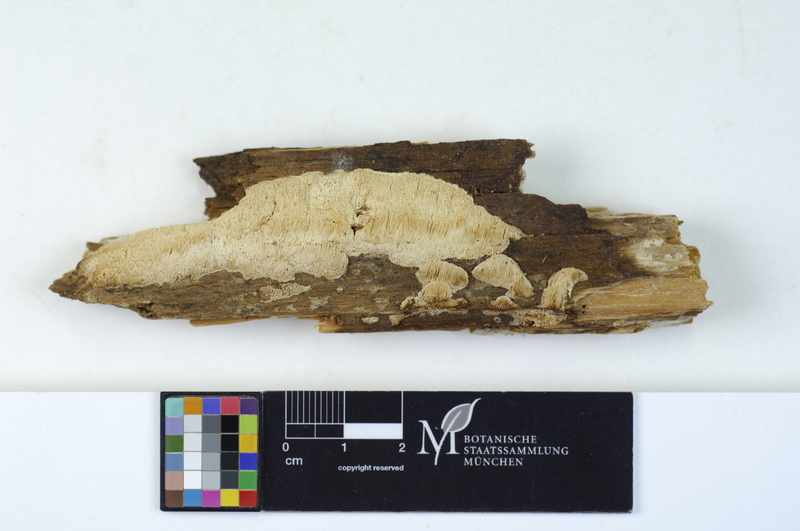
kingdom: Plantae
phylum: Tracheophyta
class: Pinopsida
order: Pinales
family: Pinaceae
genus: Picea
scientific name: Picea abies
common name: Norway spruce
